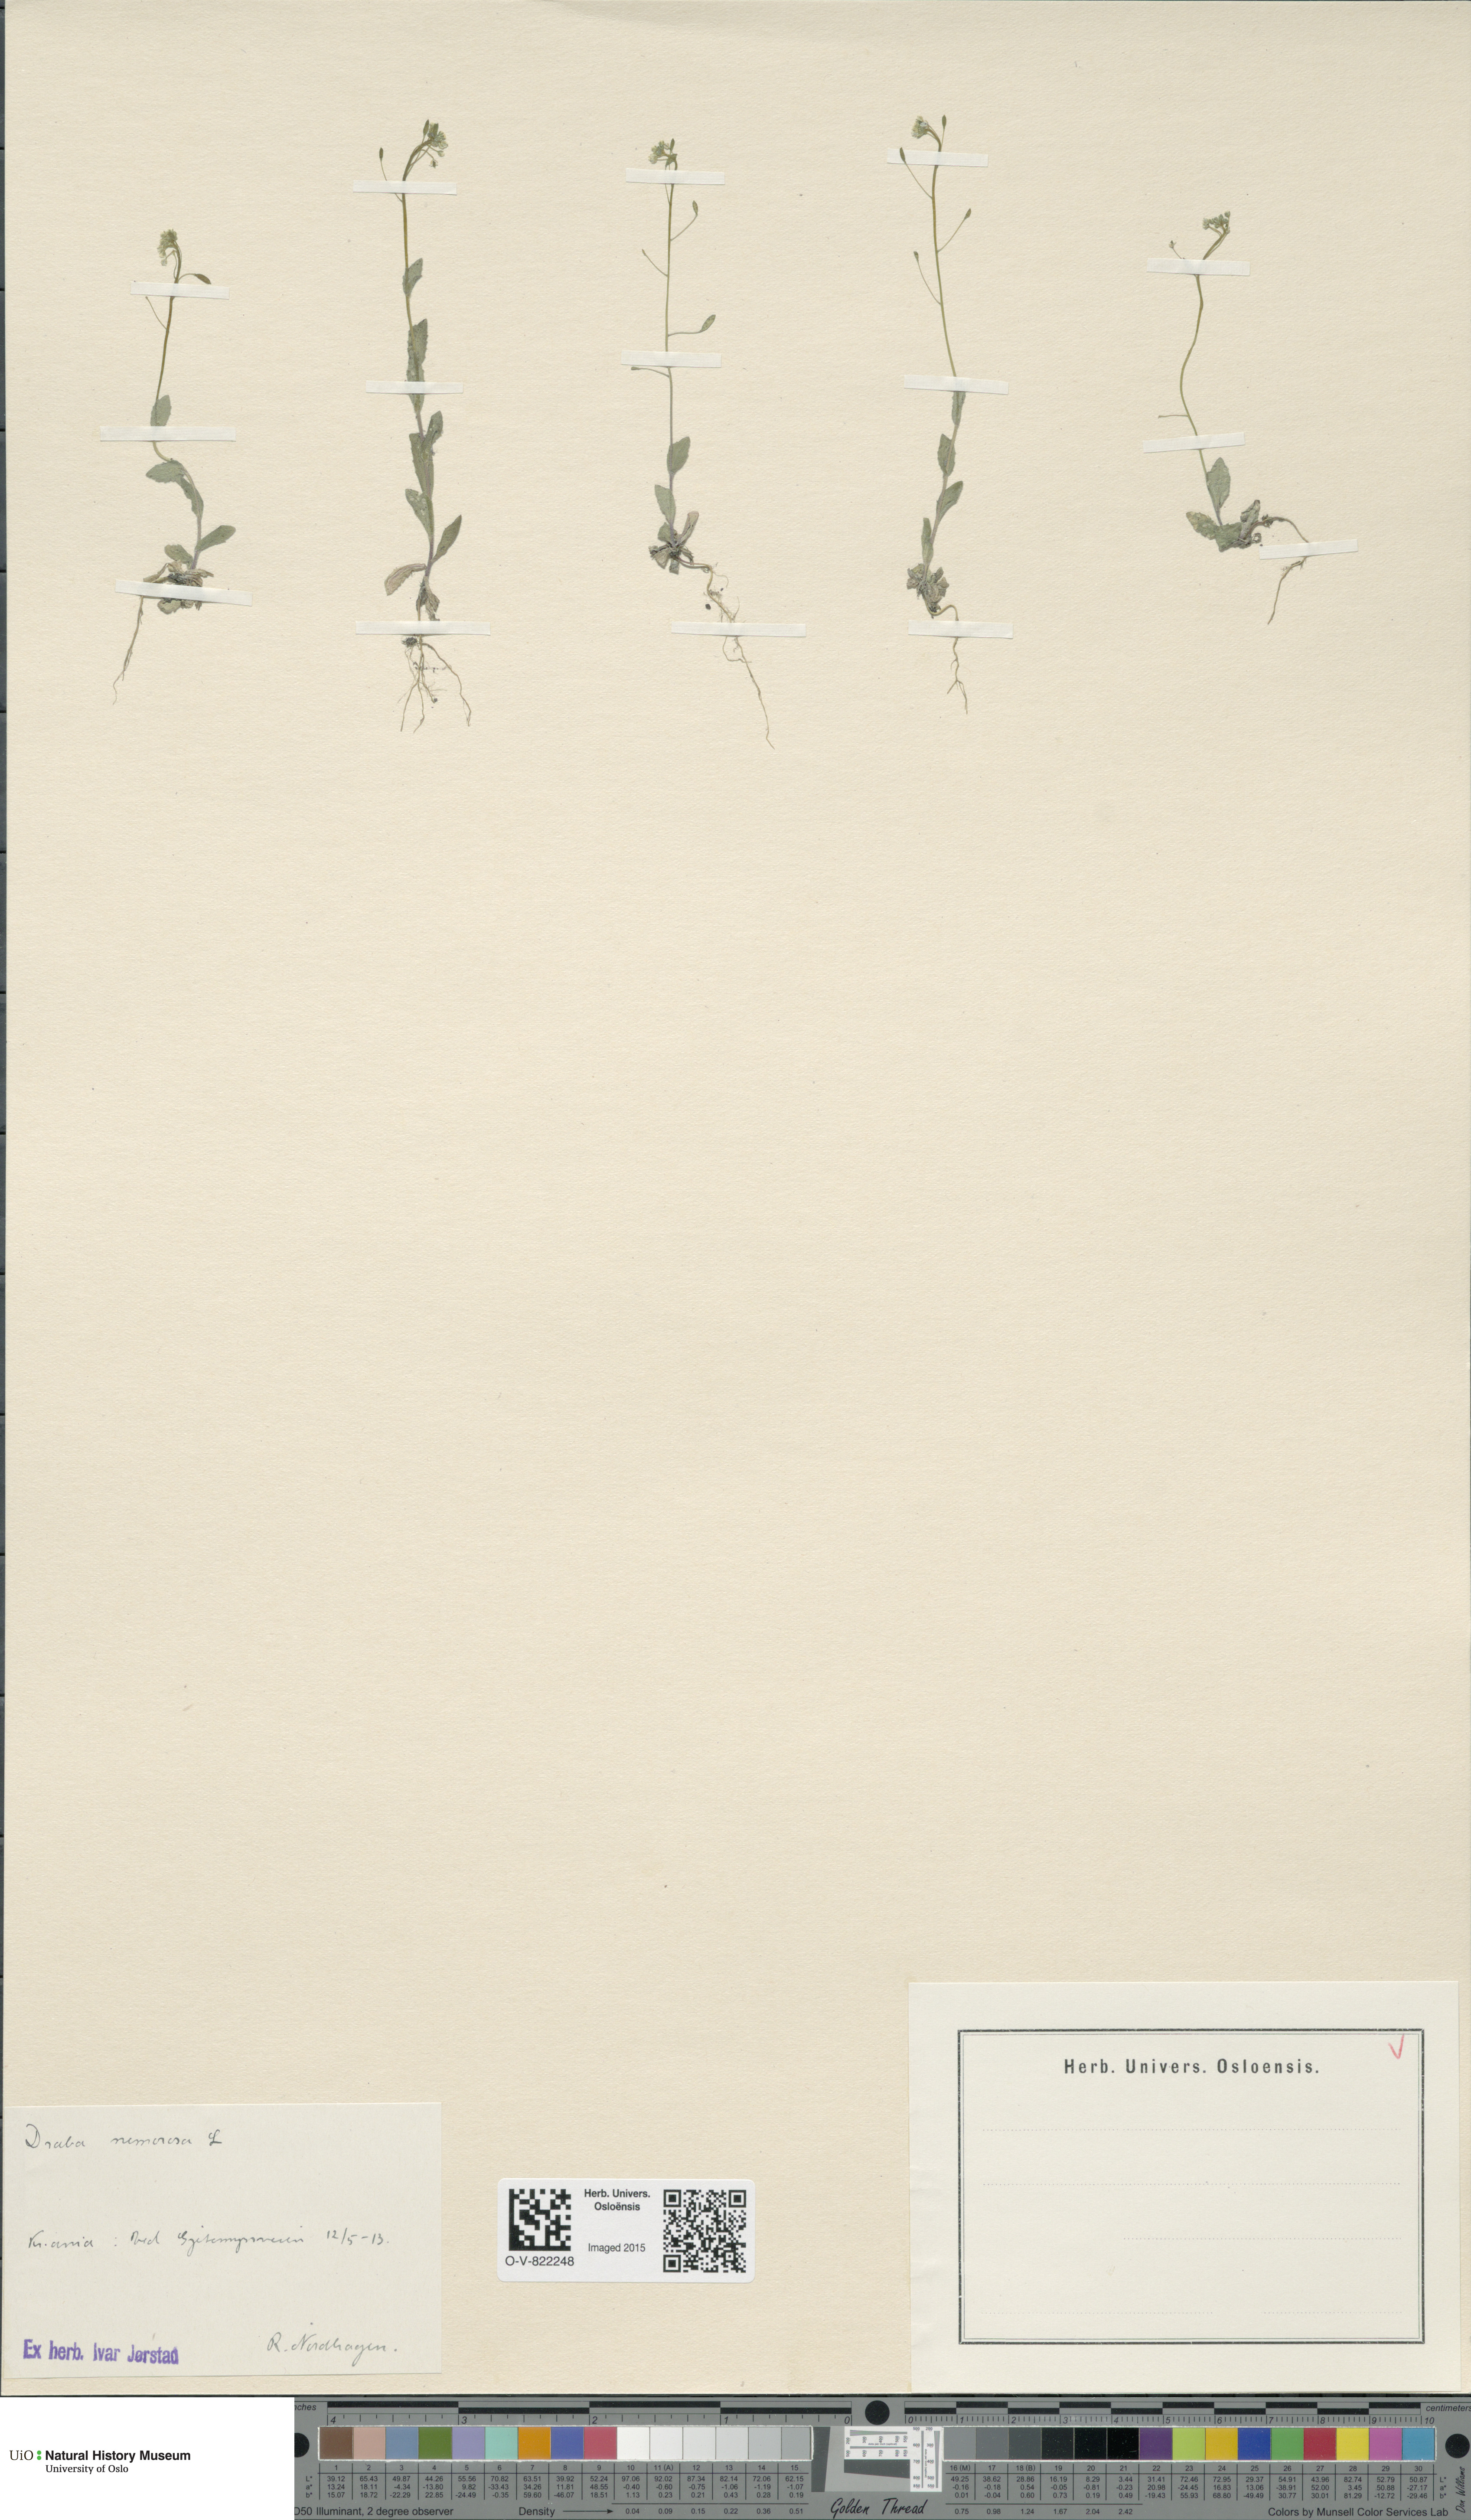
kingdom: Plantae
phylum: Tracheophyta
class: Magnoliopsida
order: Brassicales
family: Brassicaceae
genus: Draba
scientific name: Draba nemorosa
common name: Wood whitlow-grass
